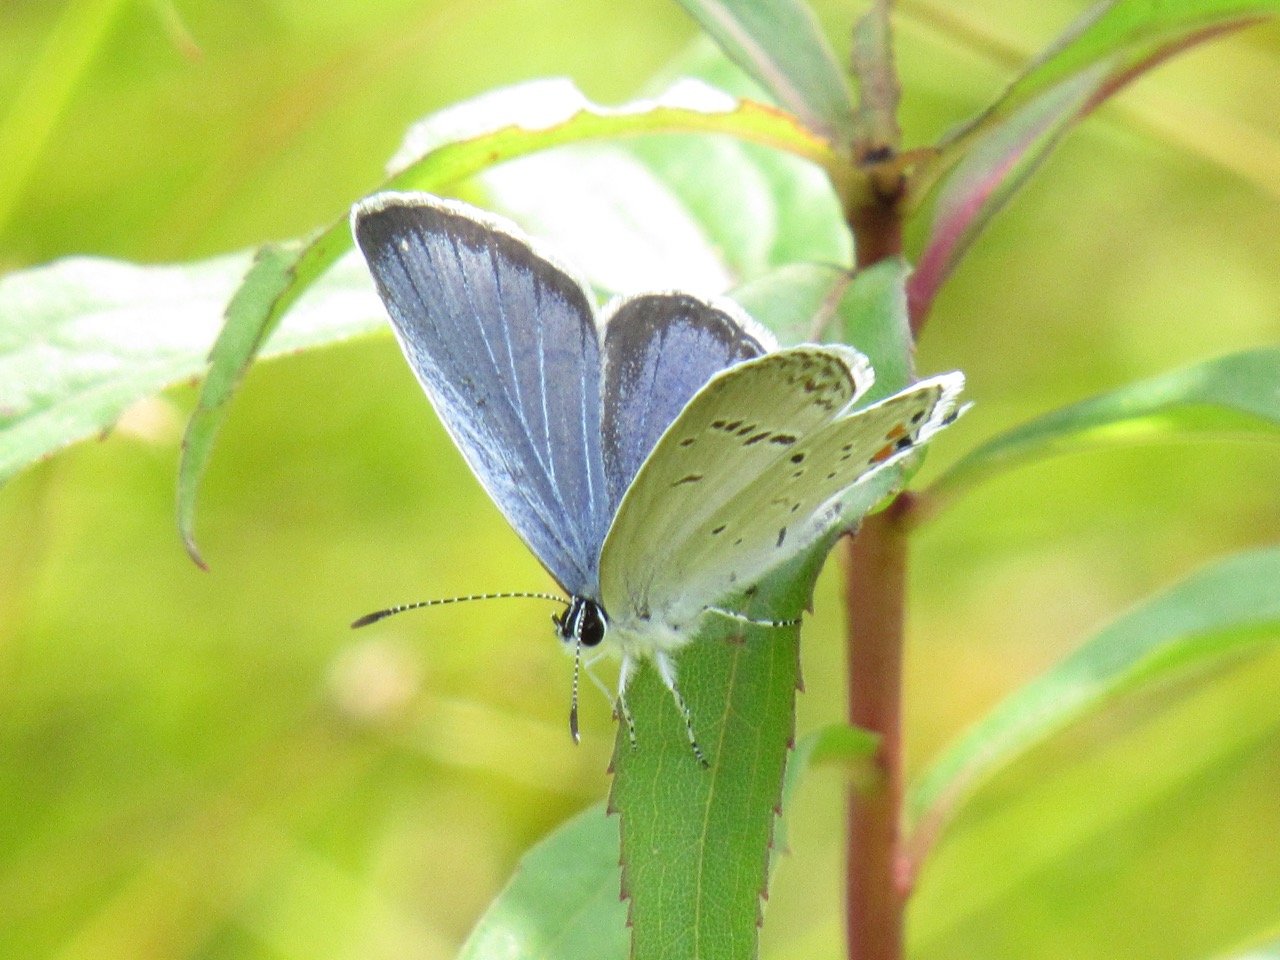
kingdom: Animalia
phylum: Arthropoda
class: Insecta
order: Lepidoptera
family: Lycaenidae
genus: Elkalyce
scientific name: Elkalyce comyntas
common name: Eastern Tailed-Blue
